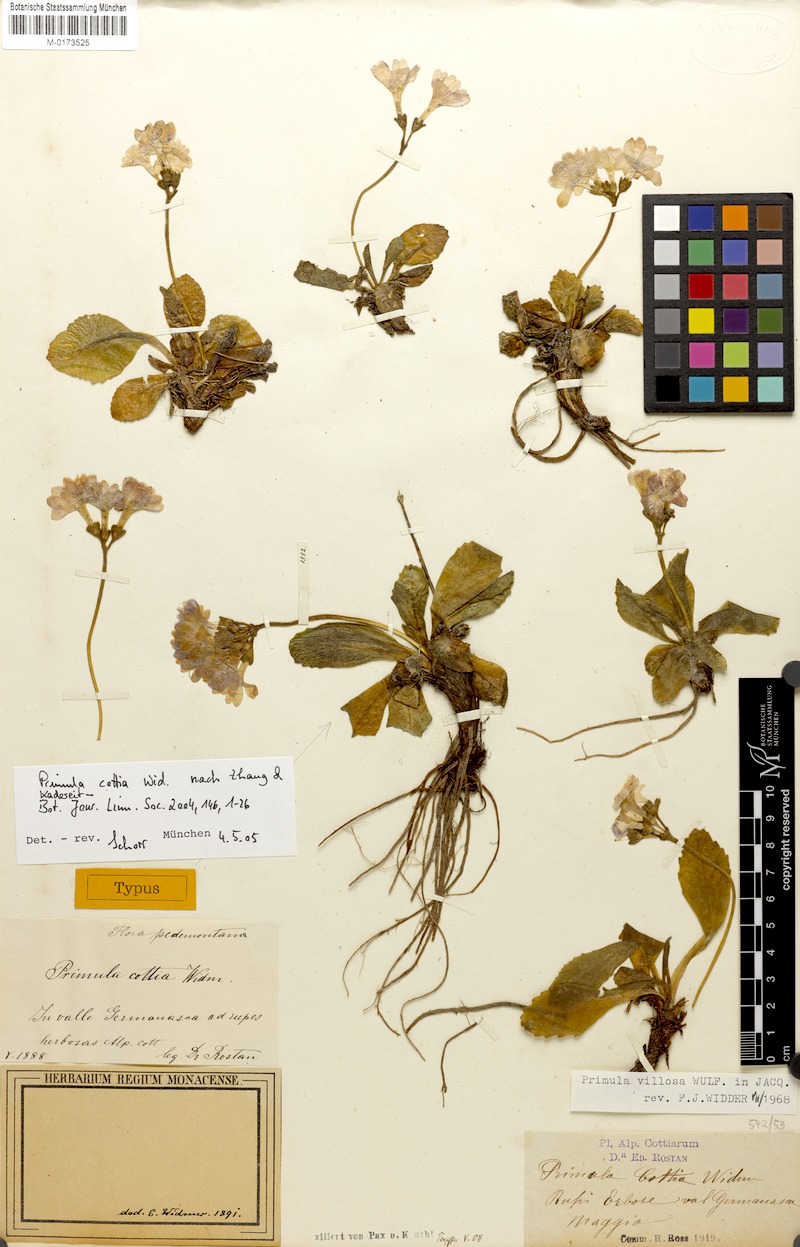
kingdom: Plantae
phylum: Tracheophyta
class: Magnoliopsida
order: Ericales
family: Primulaceae
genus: Primula
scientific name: Primula villosa
